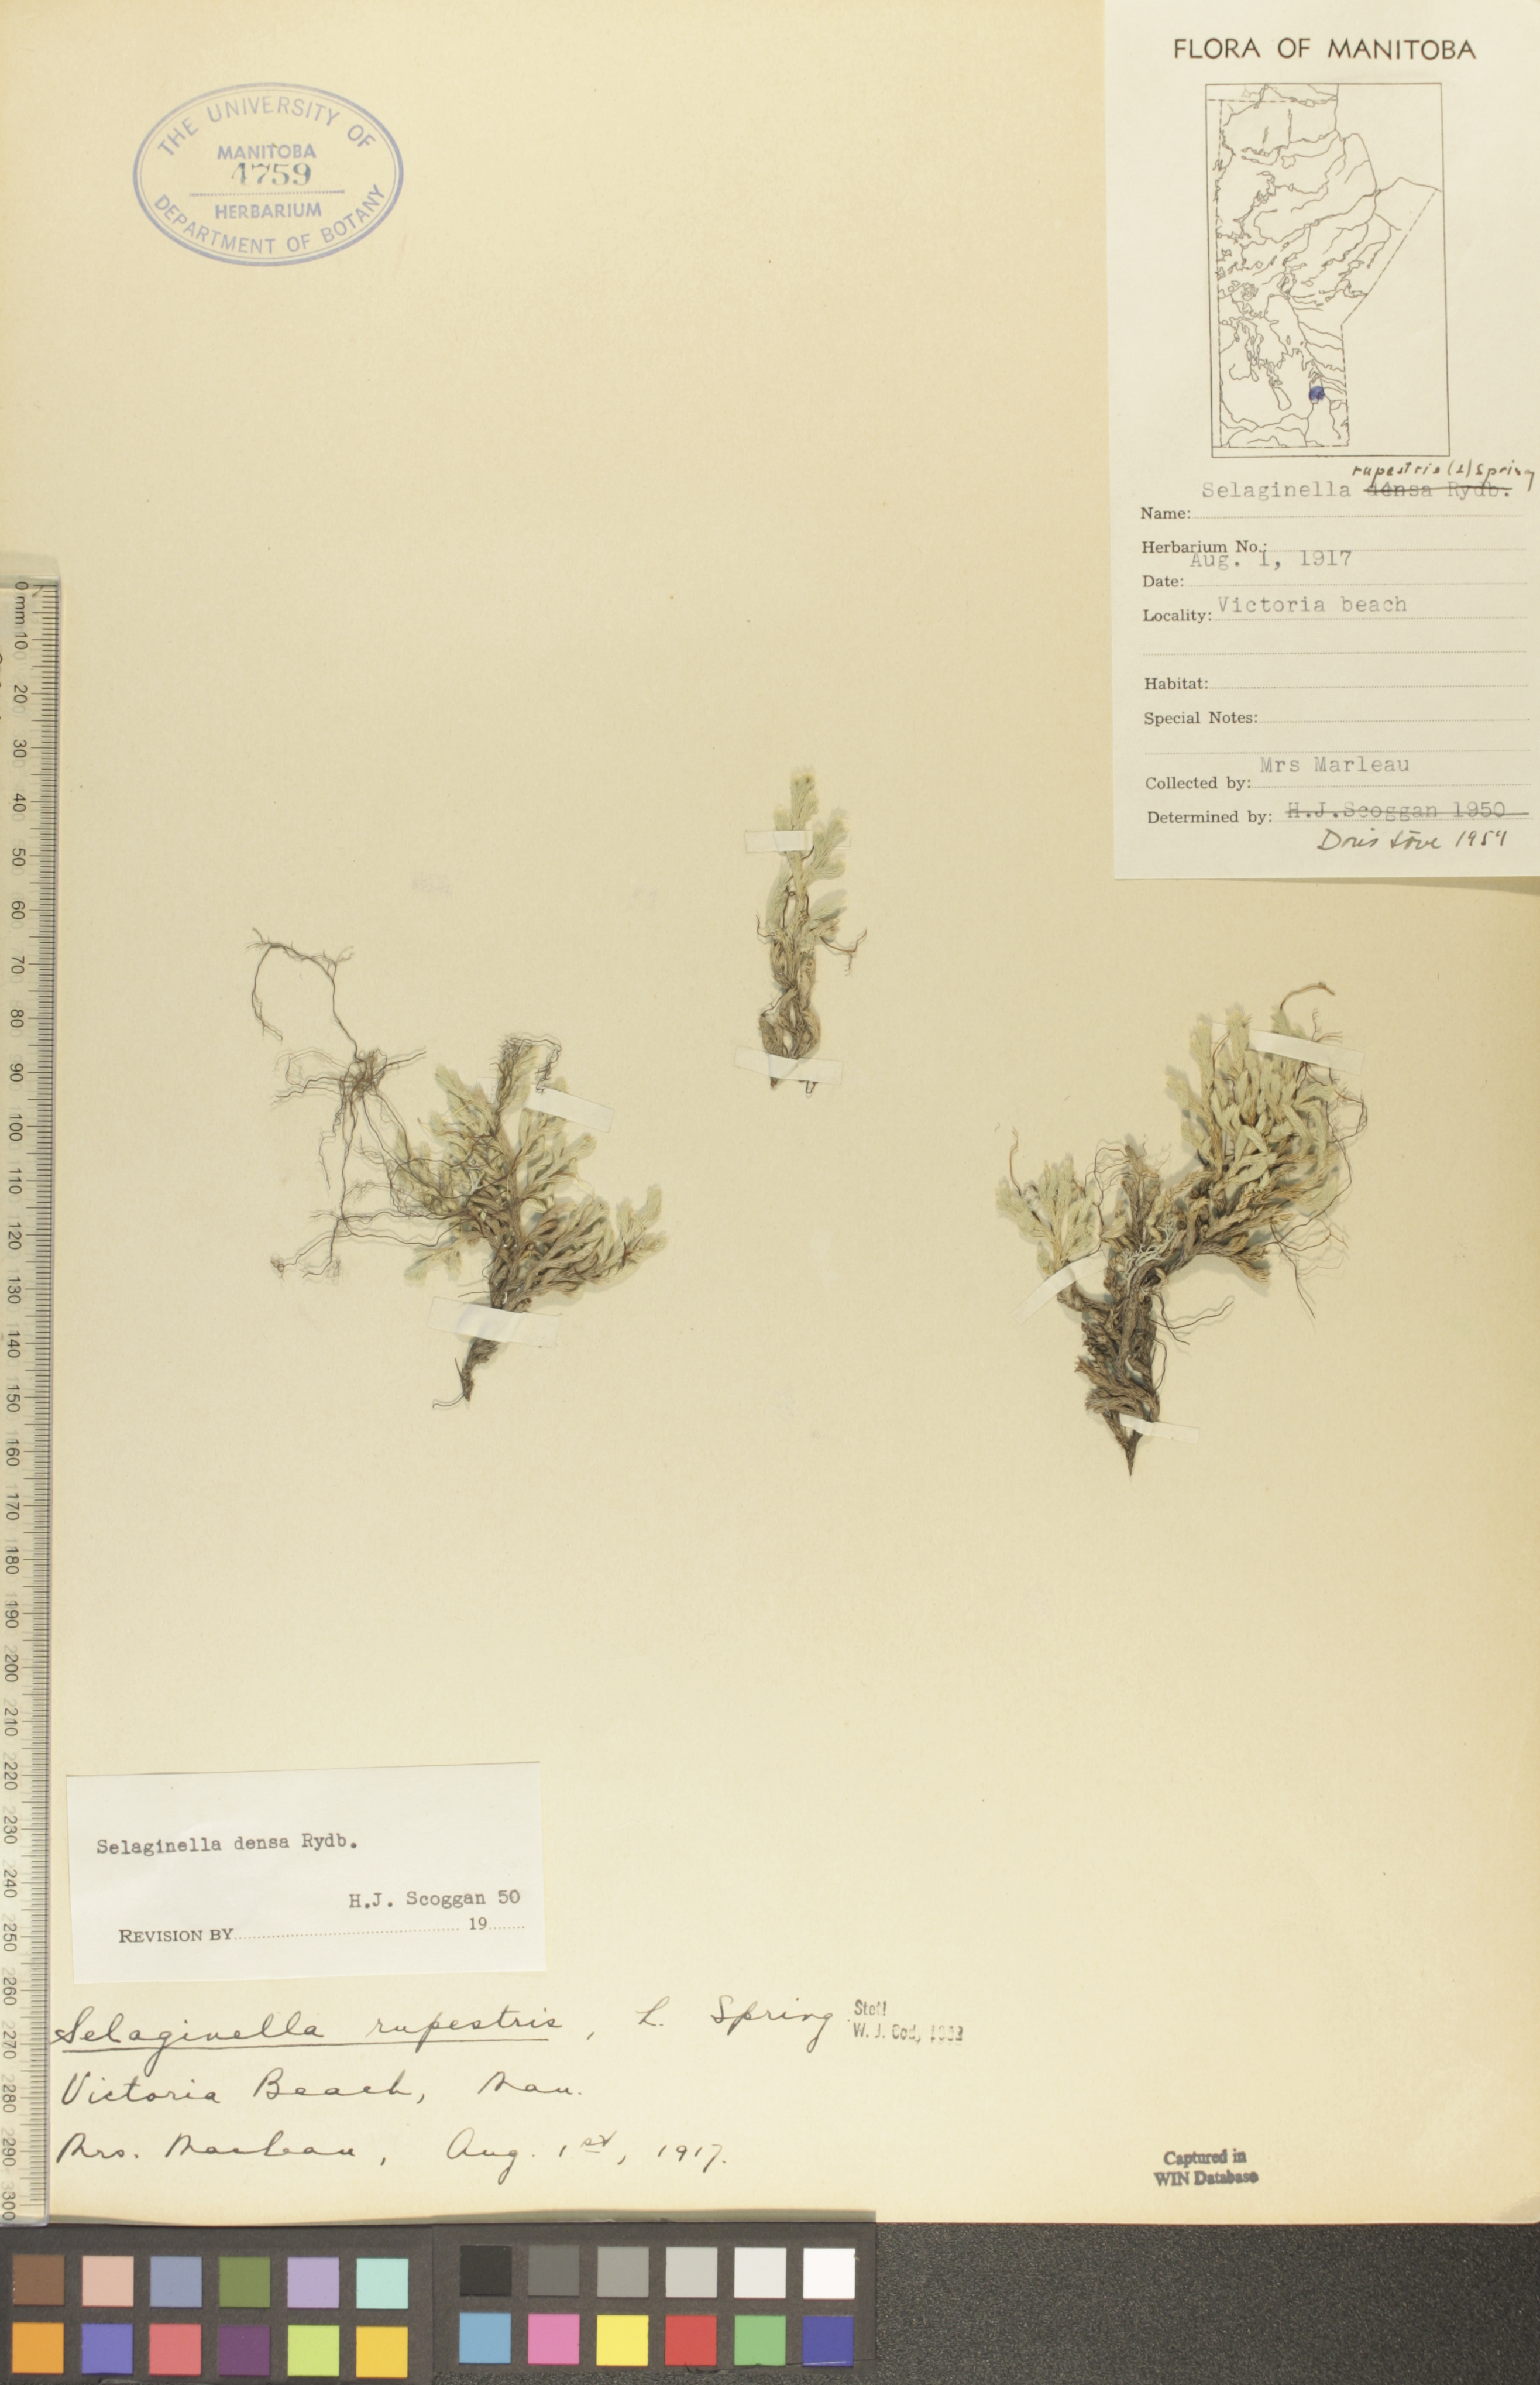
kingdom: Plantae
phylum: Tracheophyta
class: Lycopodiopsida
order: Selaginellales
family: Selaginellaceae
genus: Selaginella
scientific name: Selaginella rupestris
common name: Dwarf spikemoss
